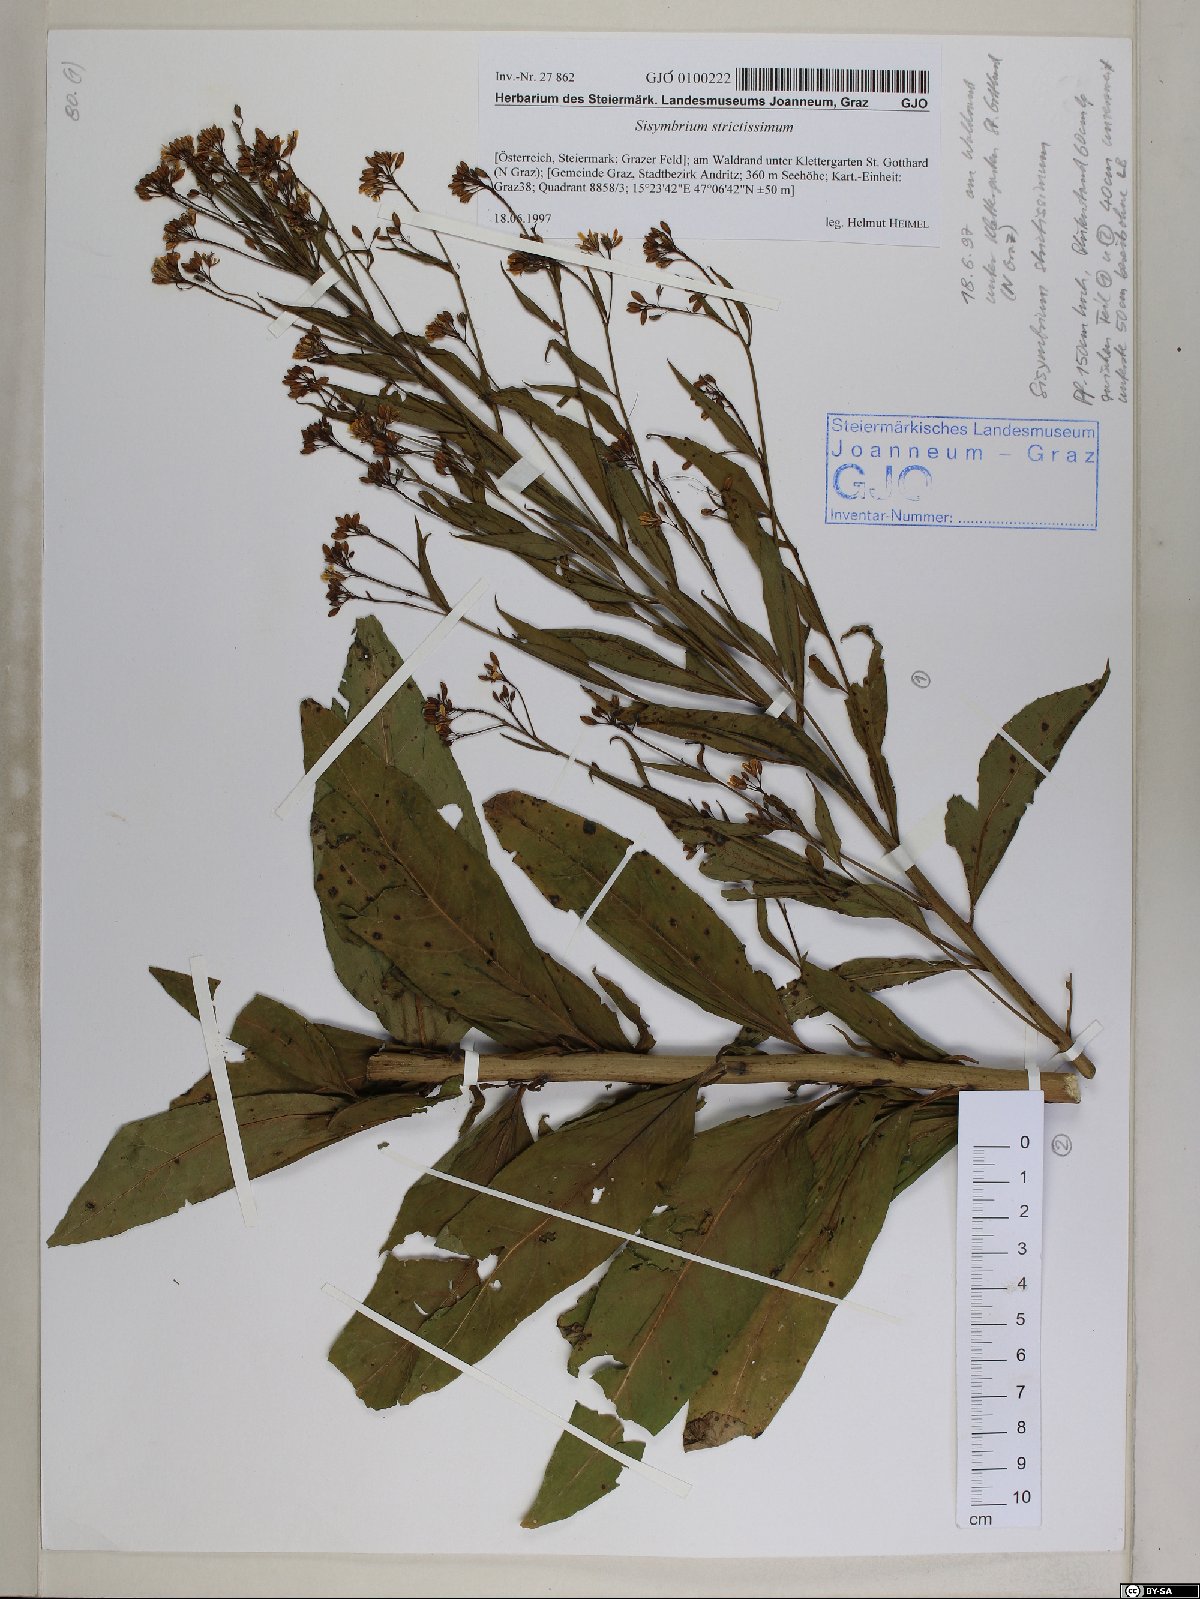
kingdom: Plantae
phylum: Tracheophyta
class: Magnoliopsida
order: Brassicales
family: Brassicaceae
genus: Sisymbrium
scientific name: Sisymbrium strictissimum
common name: Perennial rocket
